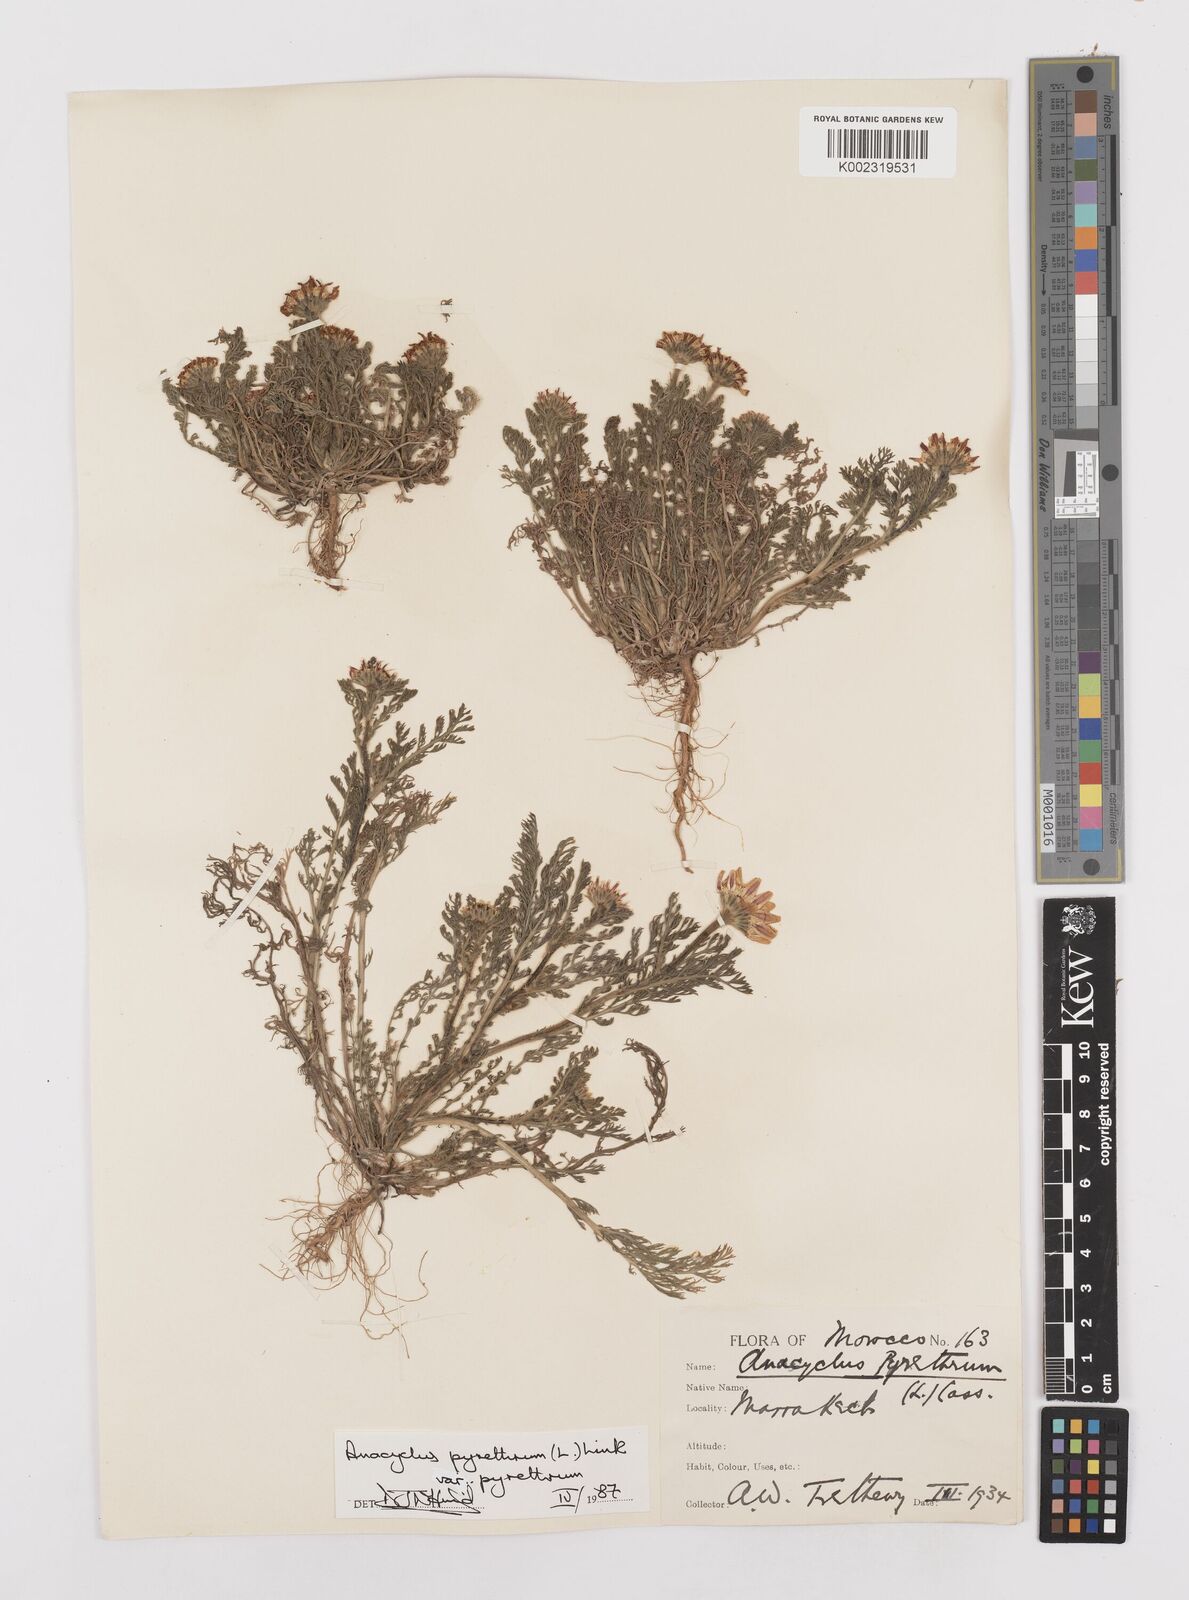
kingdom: Plantae
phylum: Tracheophyta
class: Magnoliopsida
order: Asterales
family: Asteraceae
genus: Anacyclus
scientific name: Anacyclus pyrethrum
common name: Mt. atlas daisy
